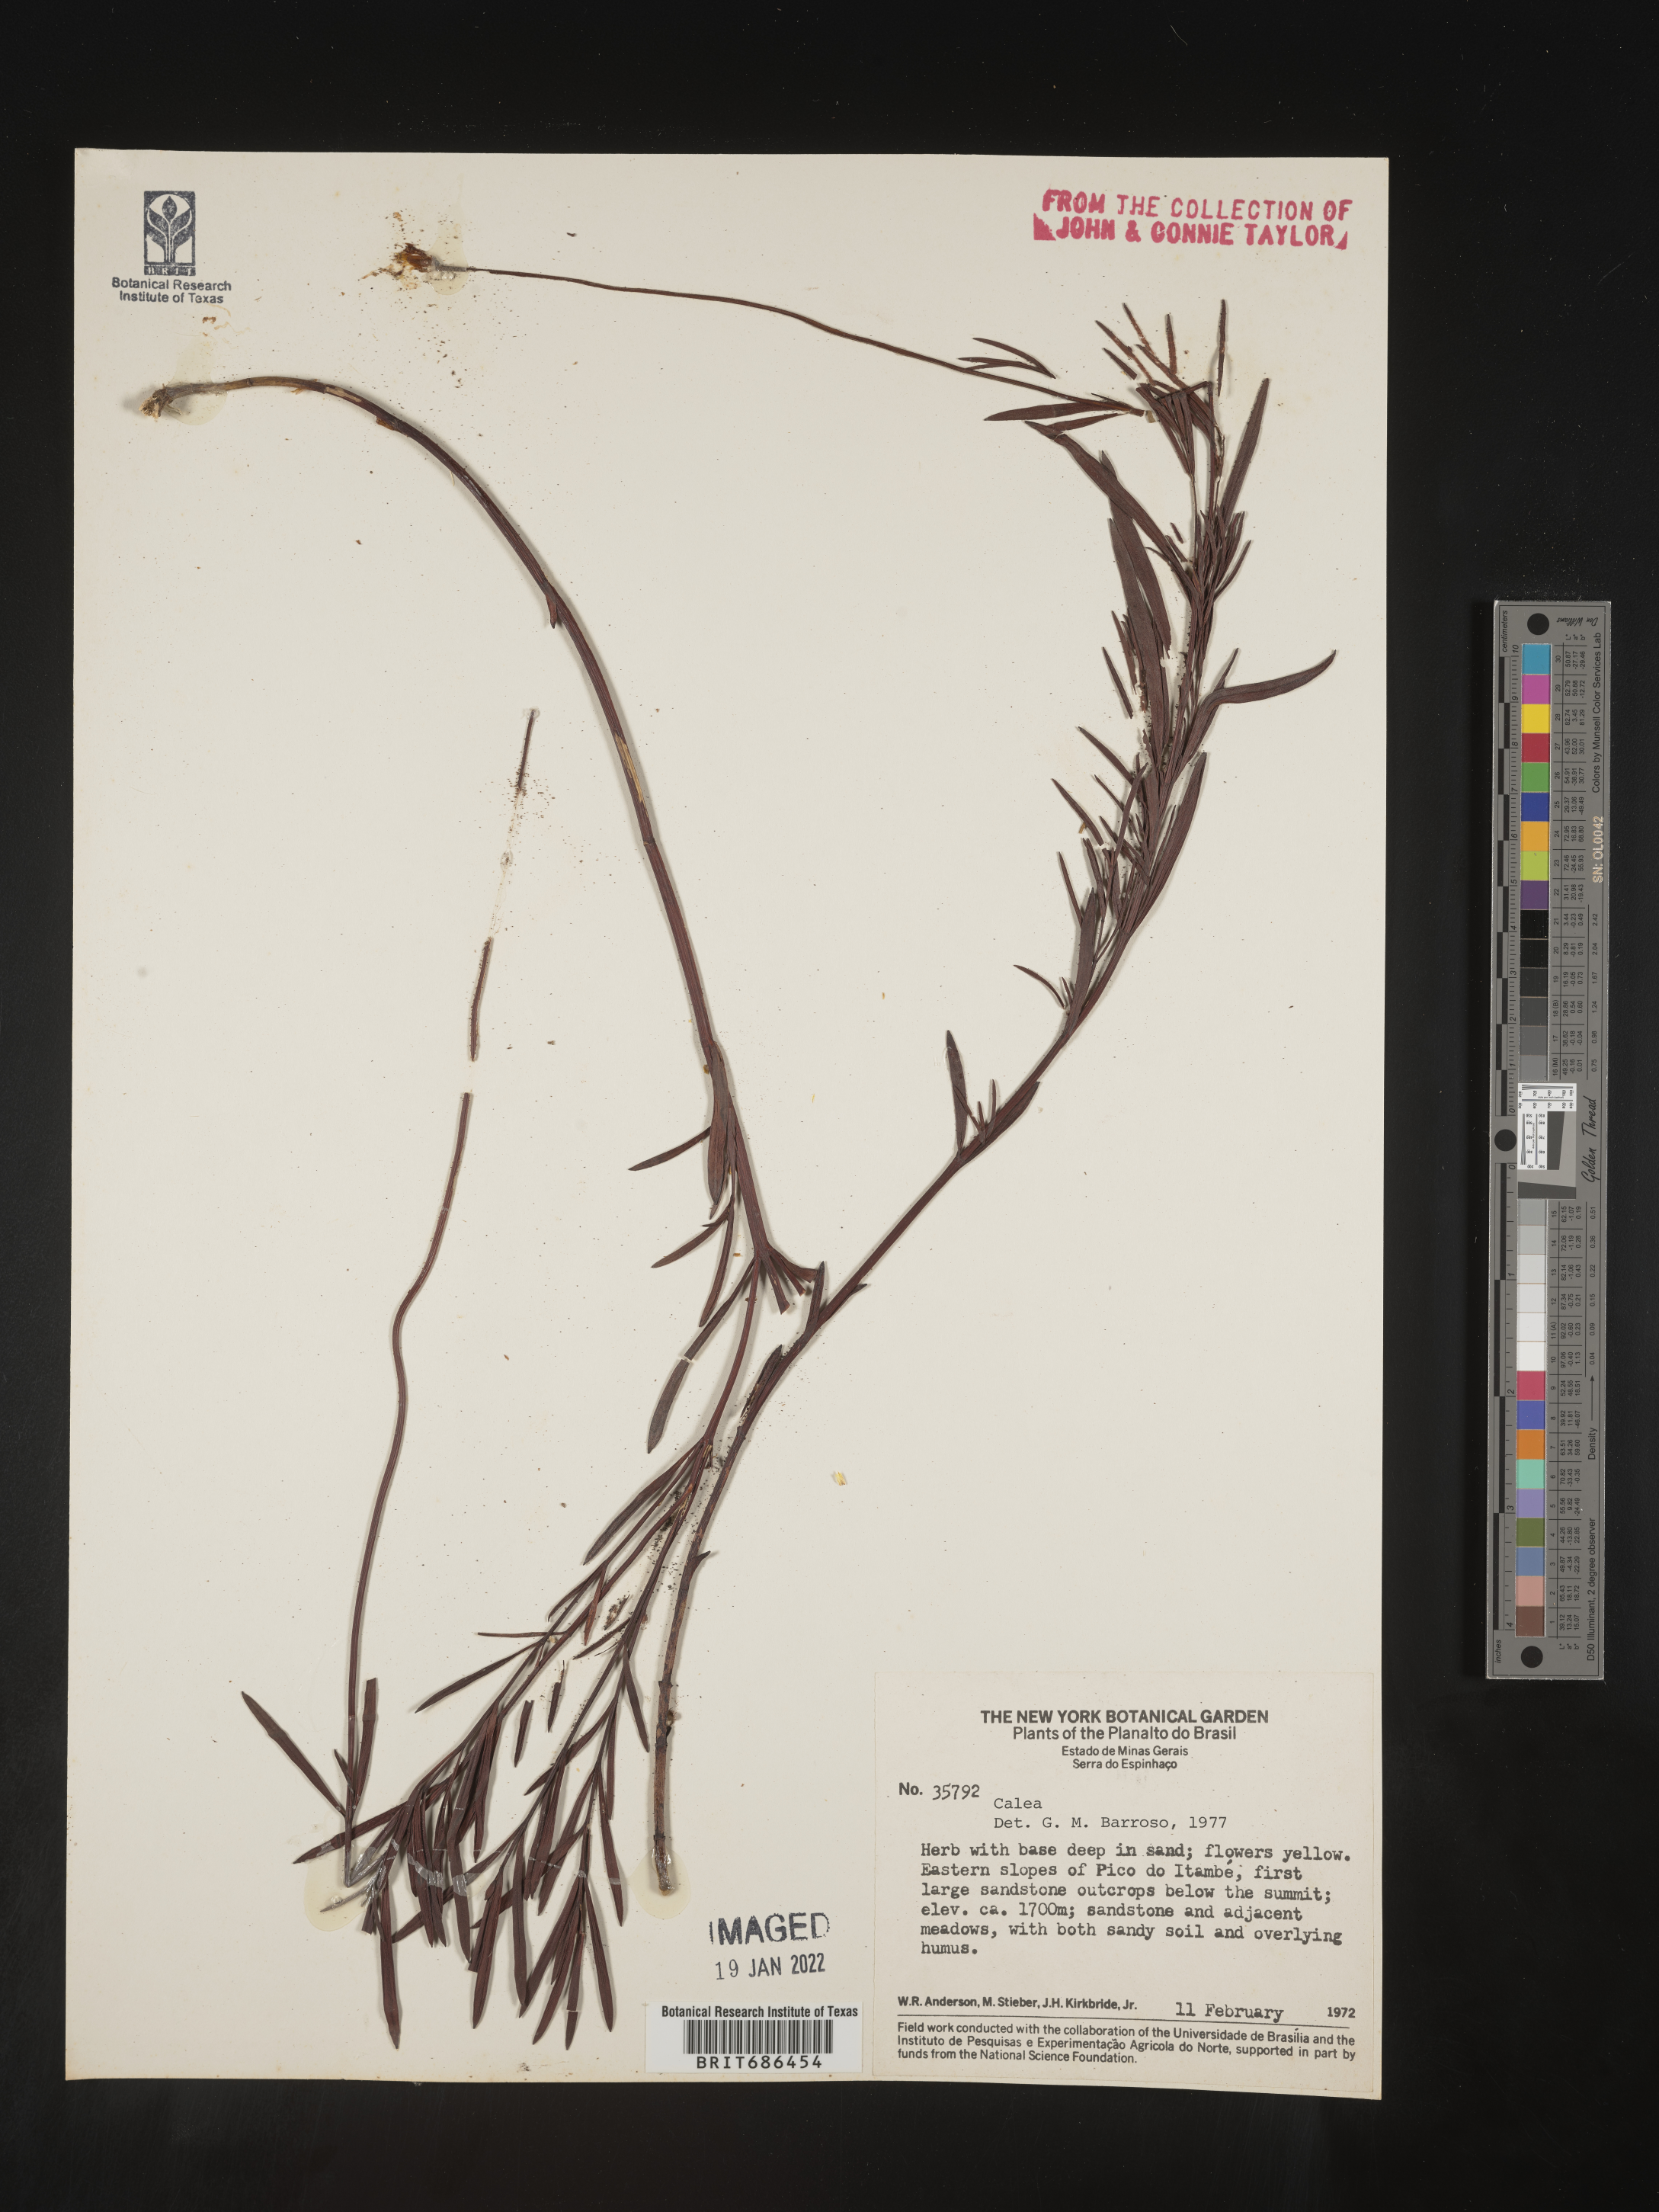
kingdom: Plantae
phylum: Tracheophyta
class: Magnoliopsida
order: Asterales
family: Asteraceae
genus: Calea
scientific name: Calea kirkbridei
